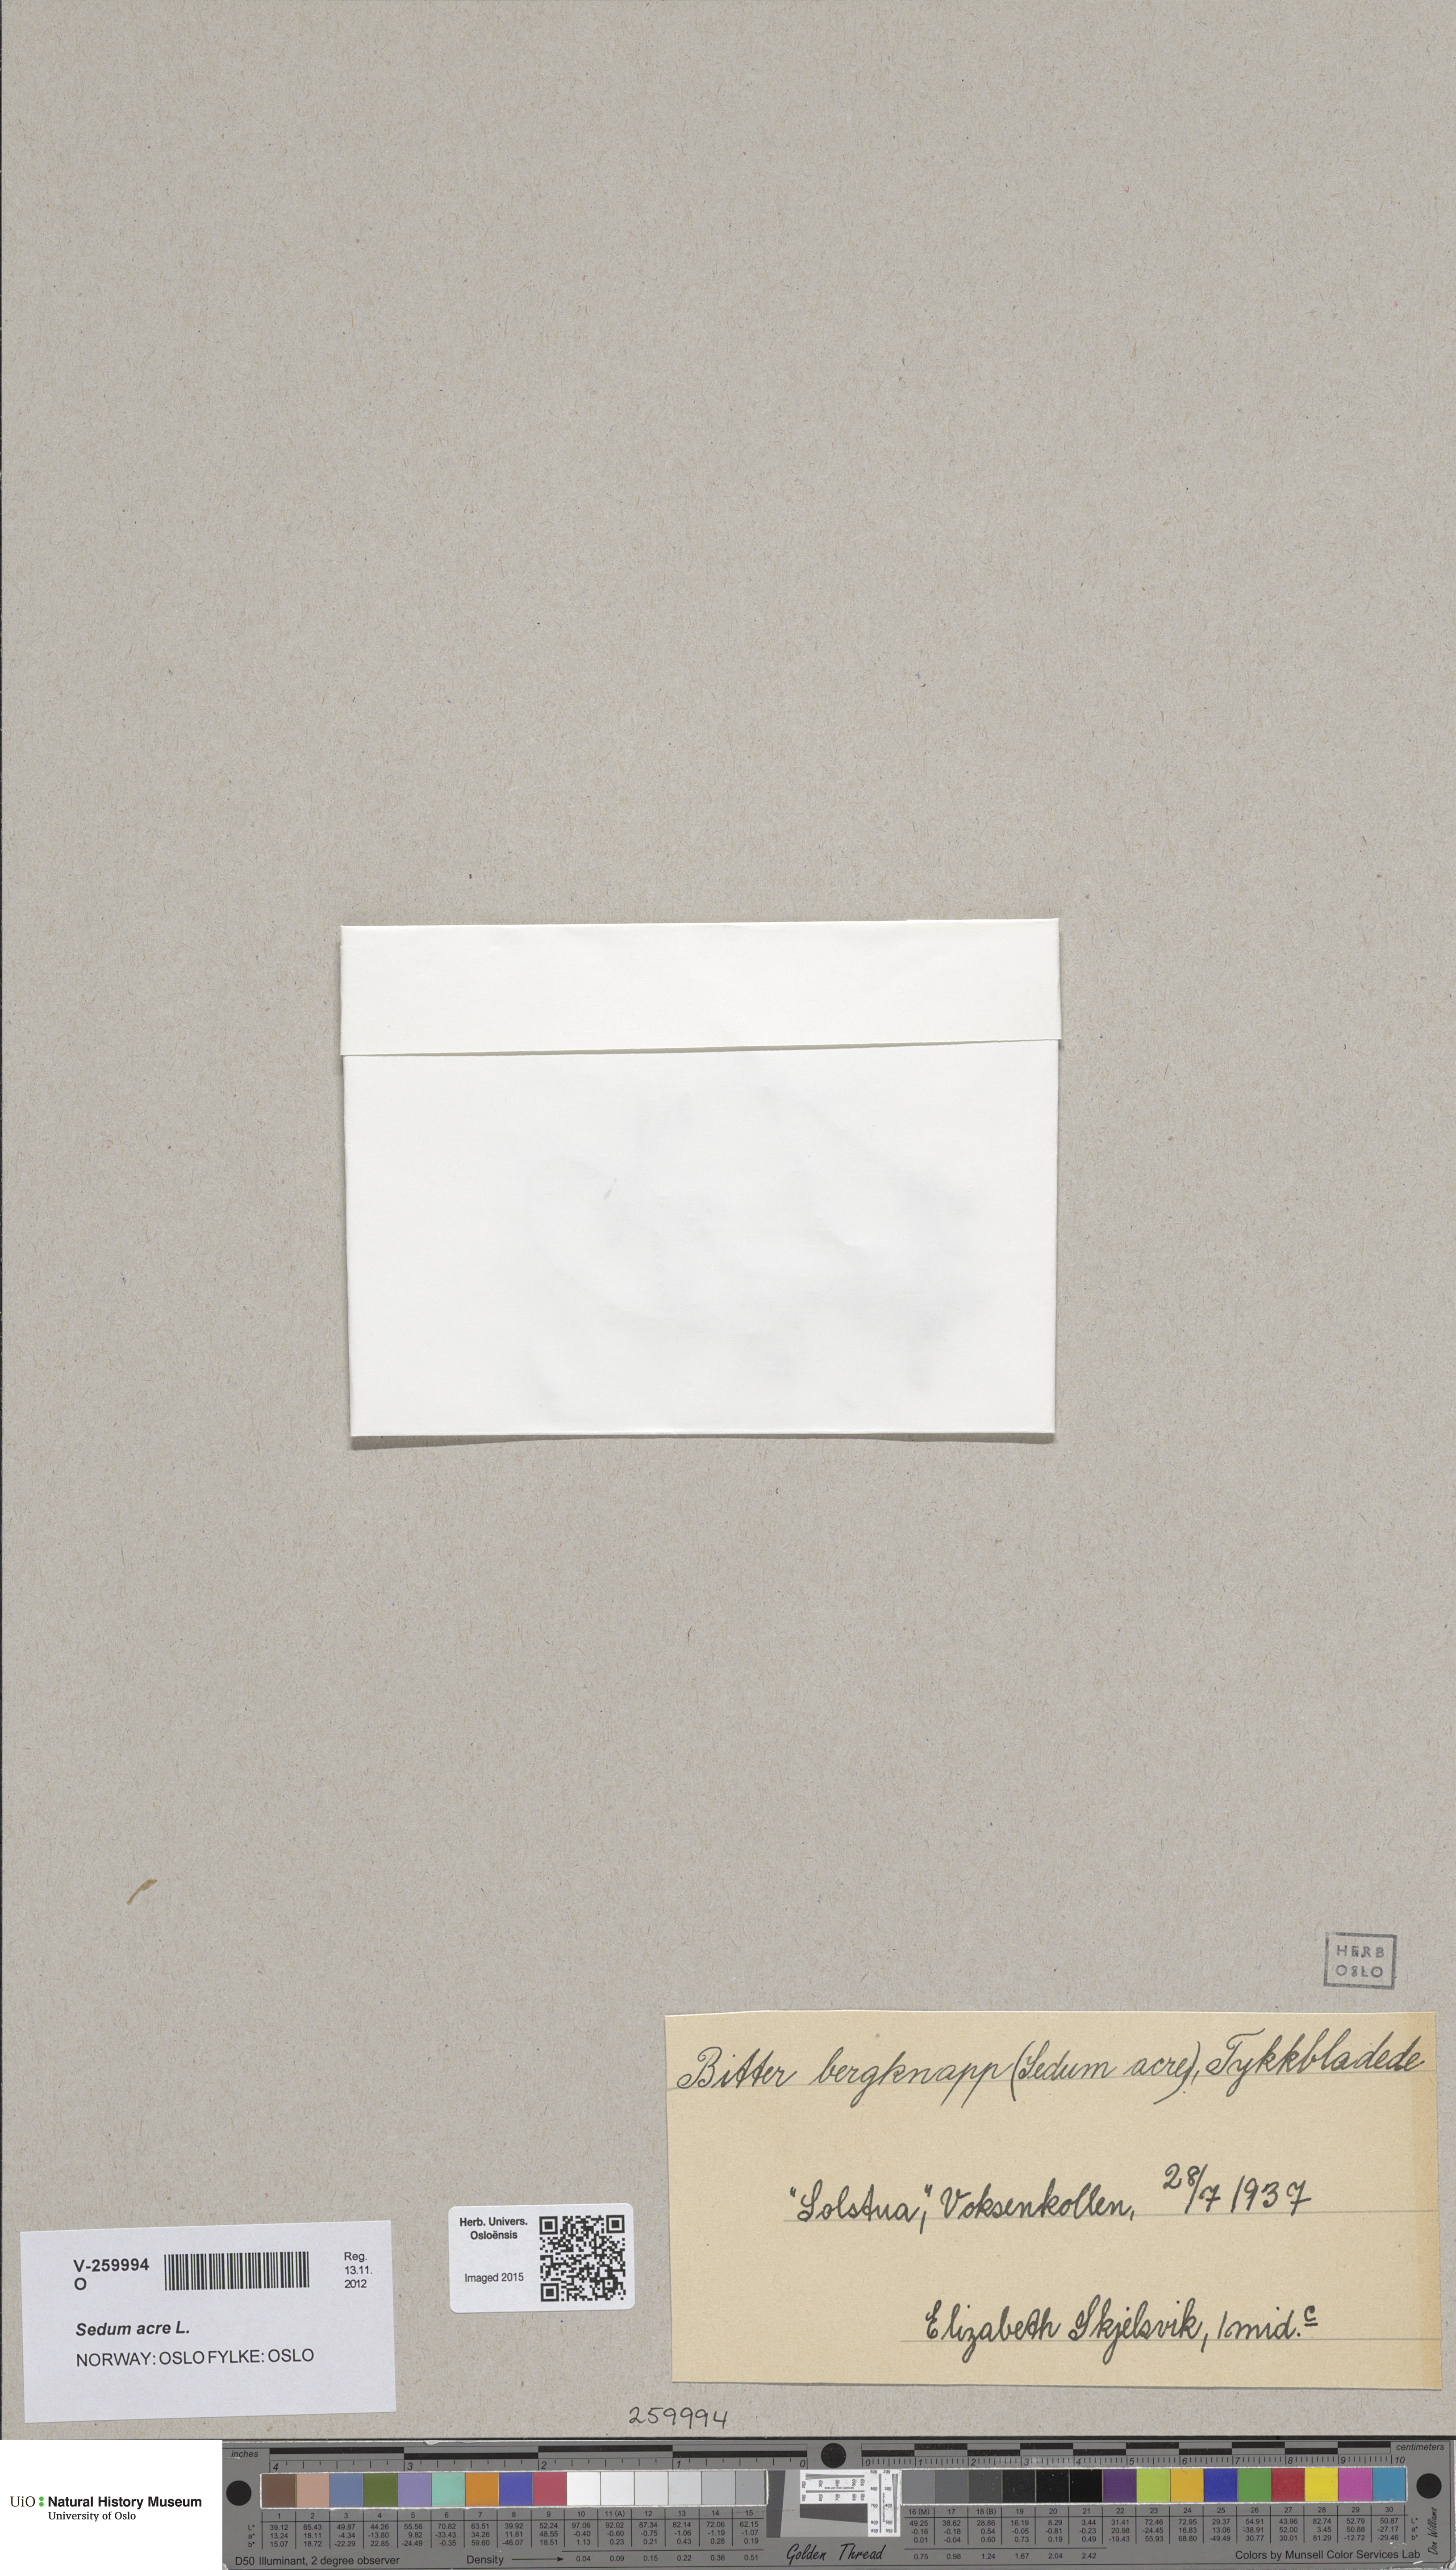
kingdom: Plantae
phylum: Tracheophyta
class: Magnoliopsida
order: Saxifragales
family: Crassulaceae
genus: Sedum
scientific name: Sedum acre
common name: Biting stonecrop
